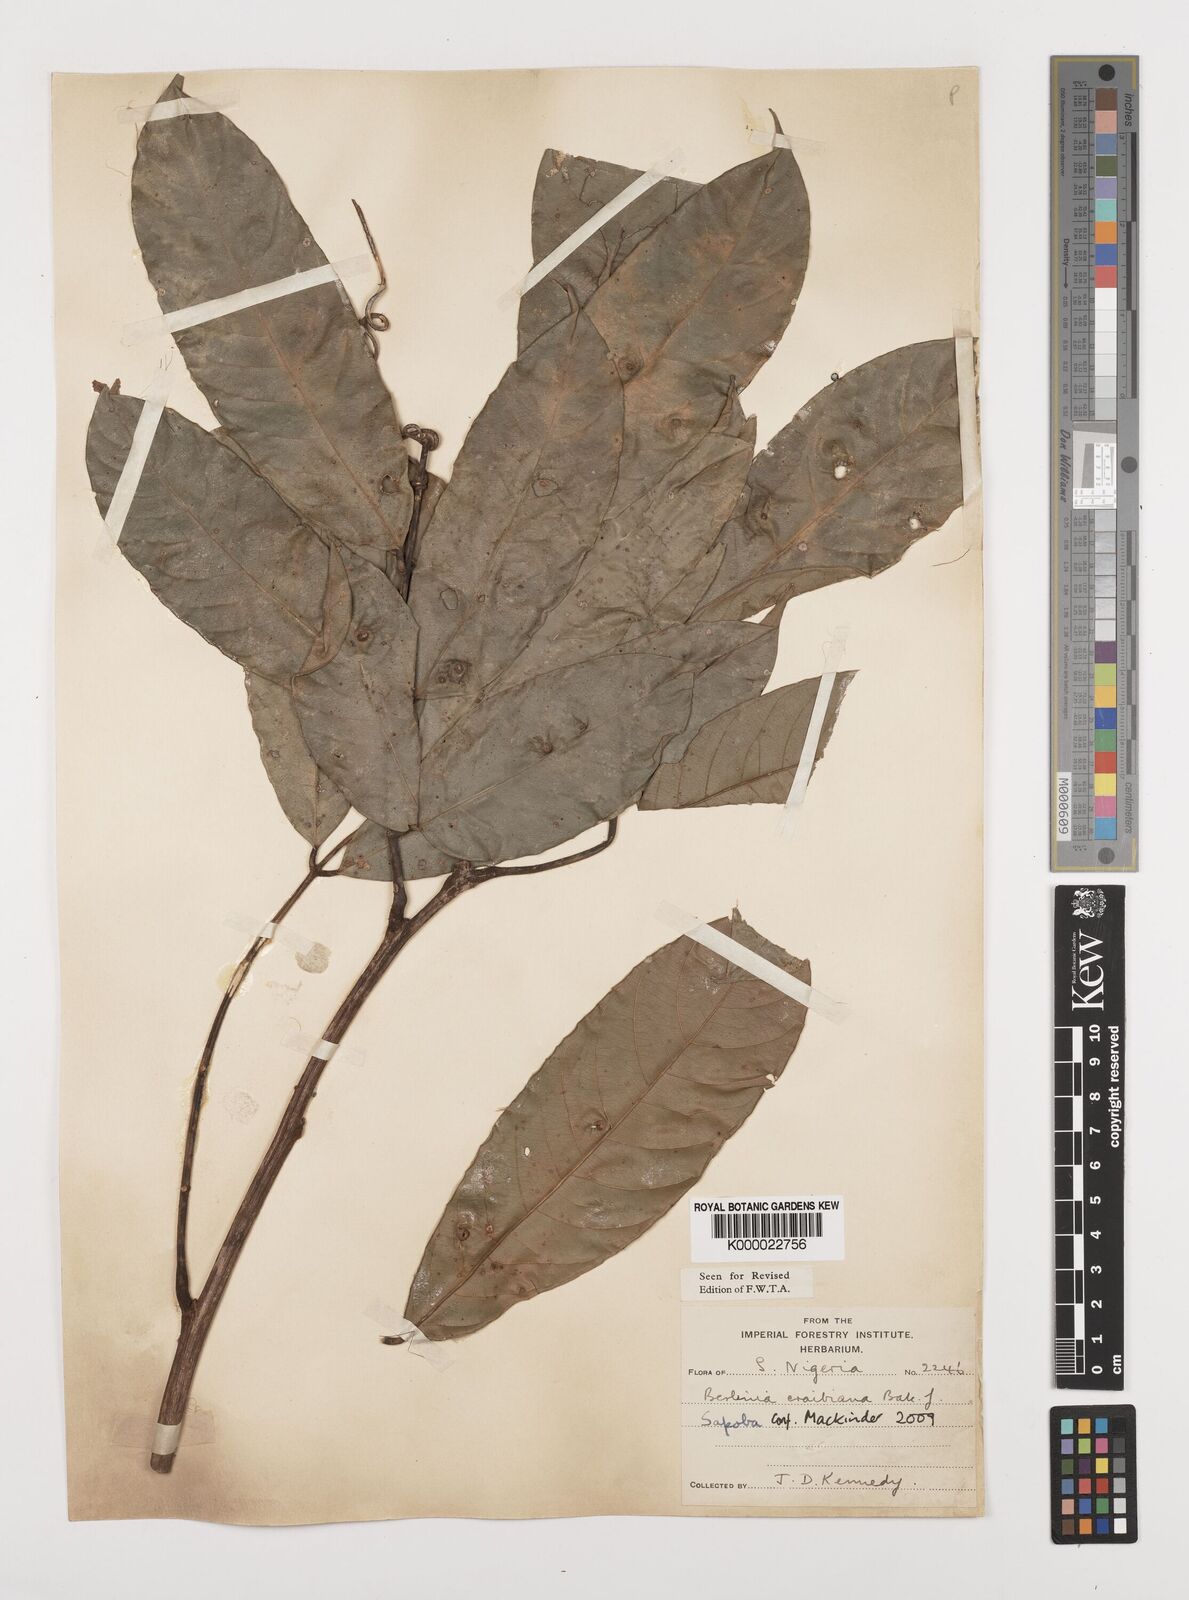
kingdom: Plantae
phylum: Tracheophyta
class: Magnoliopsida
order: Fabales
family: Fabaceae
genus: Berlinia
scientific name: Berlinia craibiana
